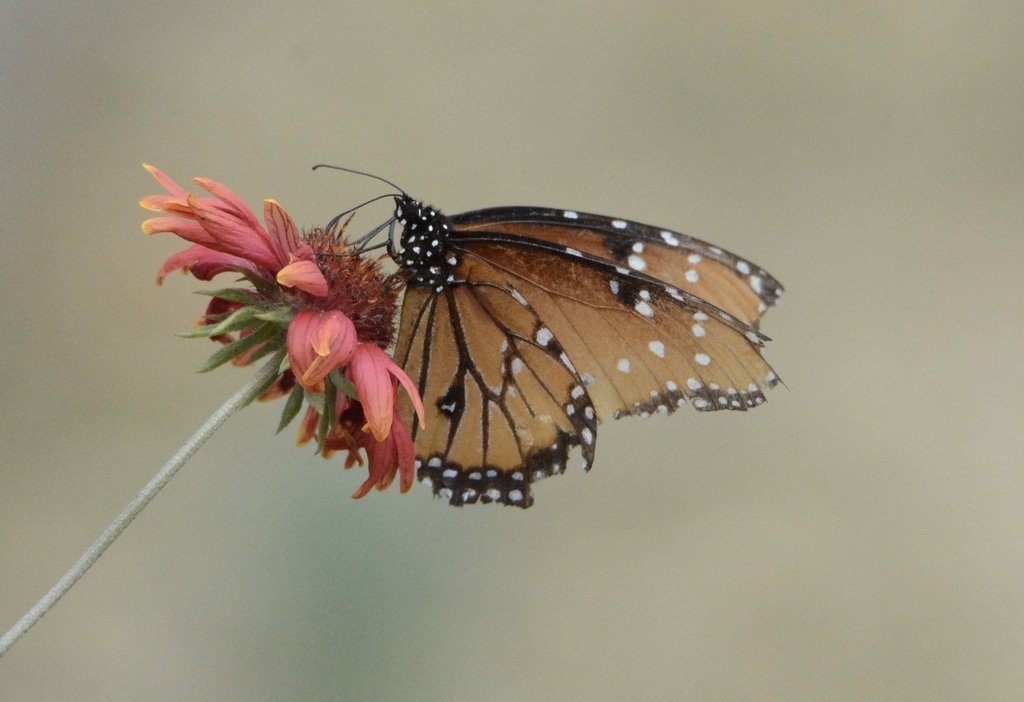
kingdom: Animalia
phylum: Arthropoda
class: Insecta
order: Lepidoptera
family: Nymphalidae
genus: Danaus
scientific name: Danaus gilippus
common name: Queen
